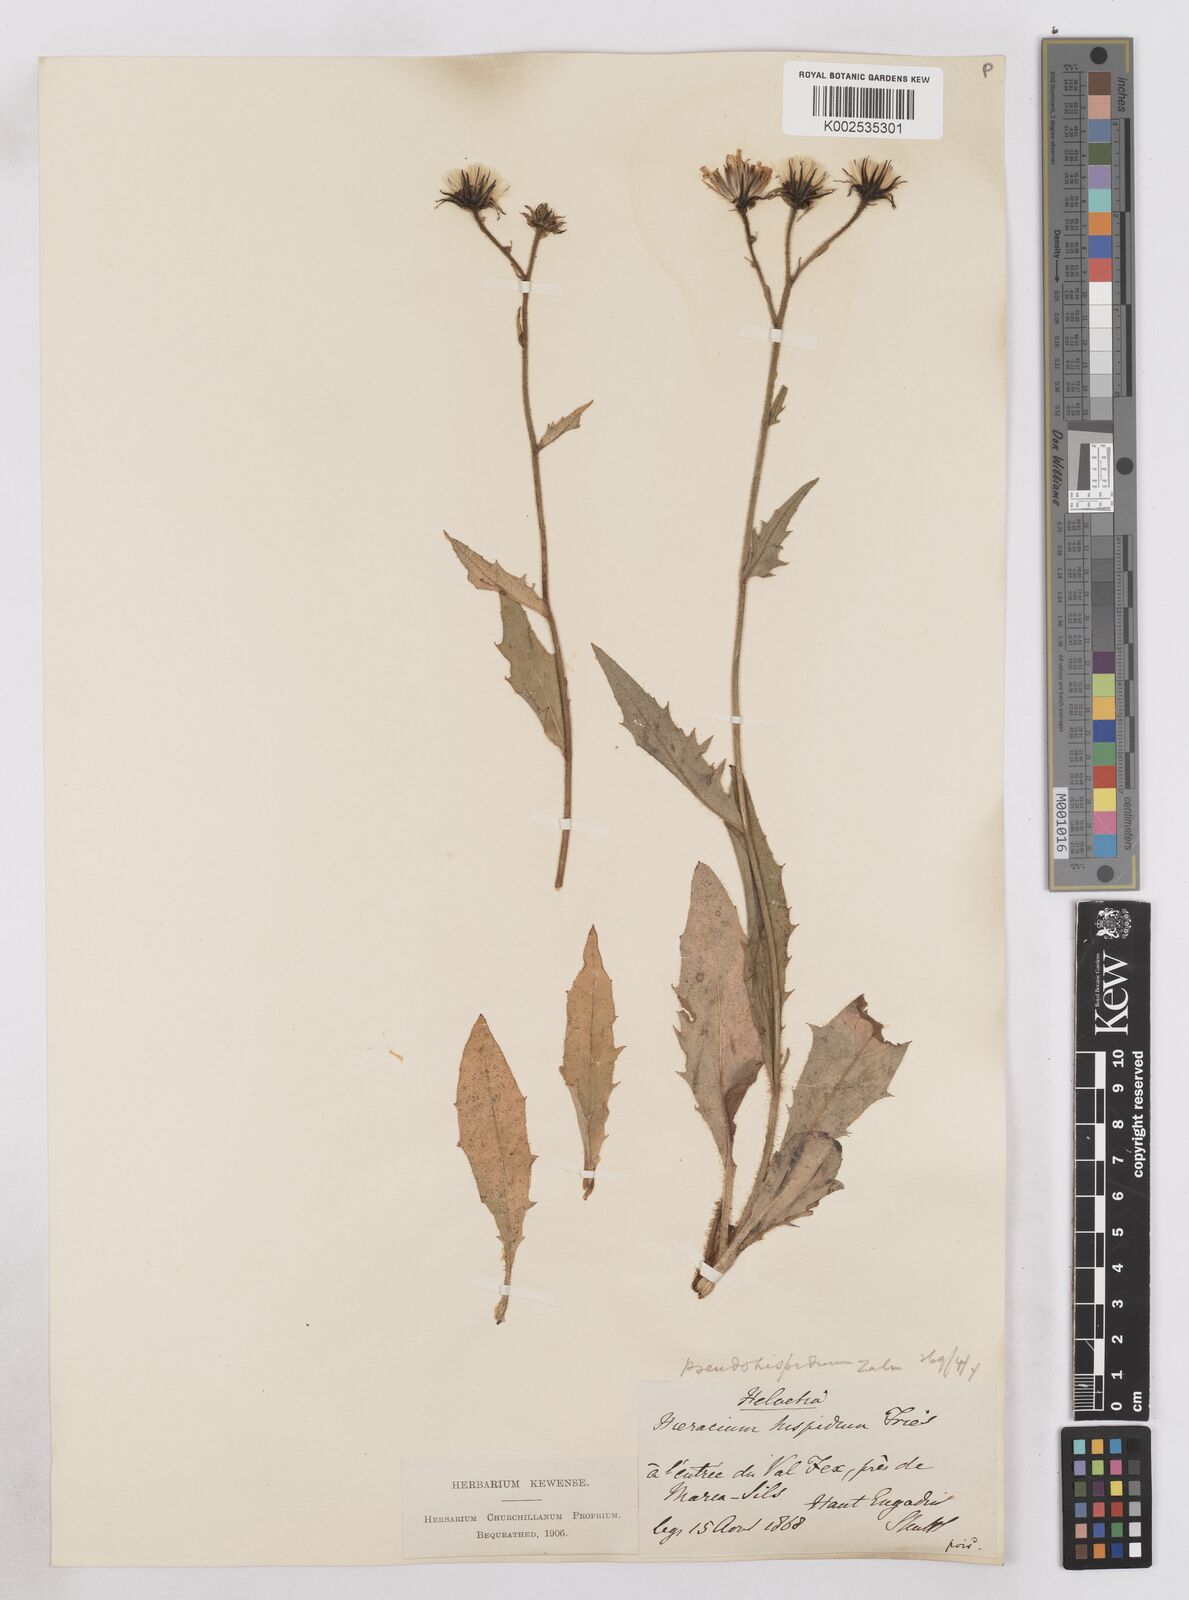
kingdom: Plantae
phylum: Tracheophyta
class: Magnoliopsida
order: Asterales
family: Asteraceae
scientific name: Asteraceae
